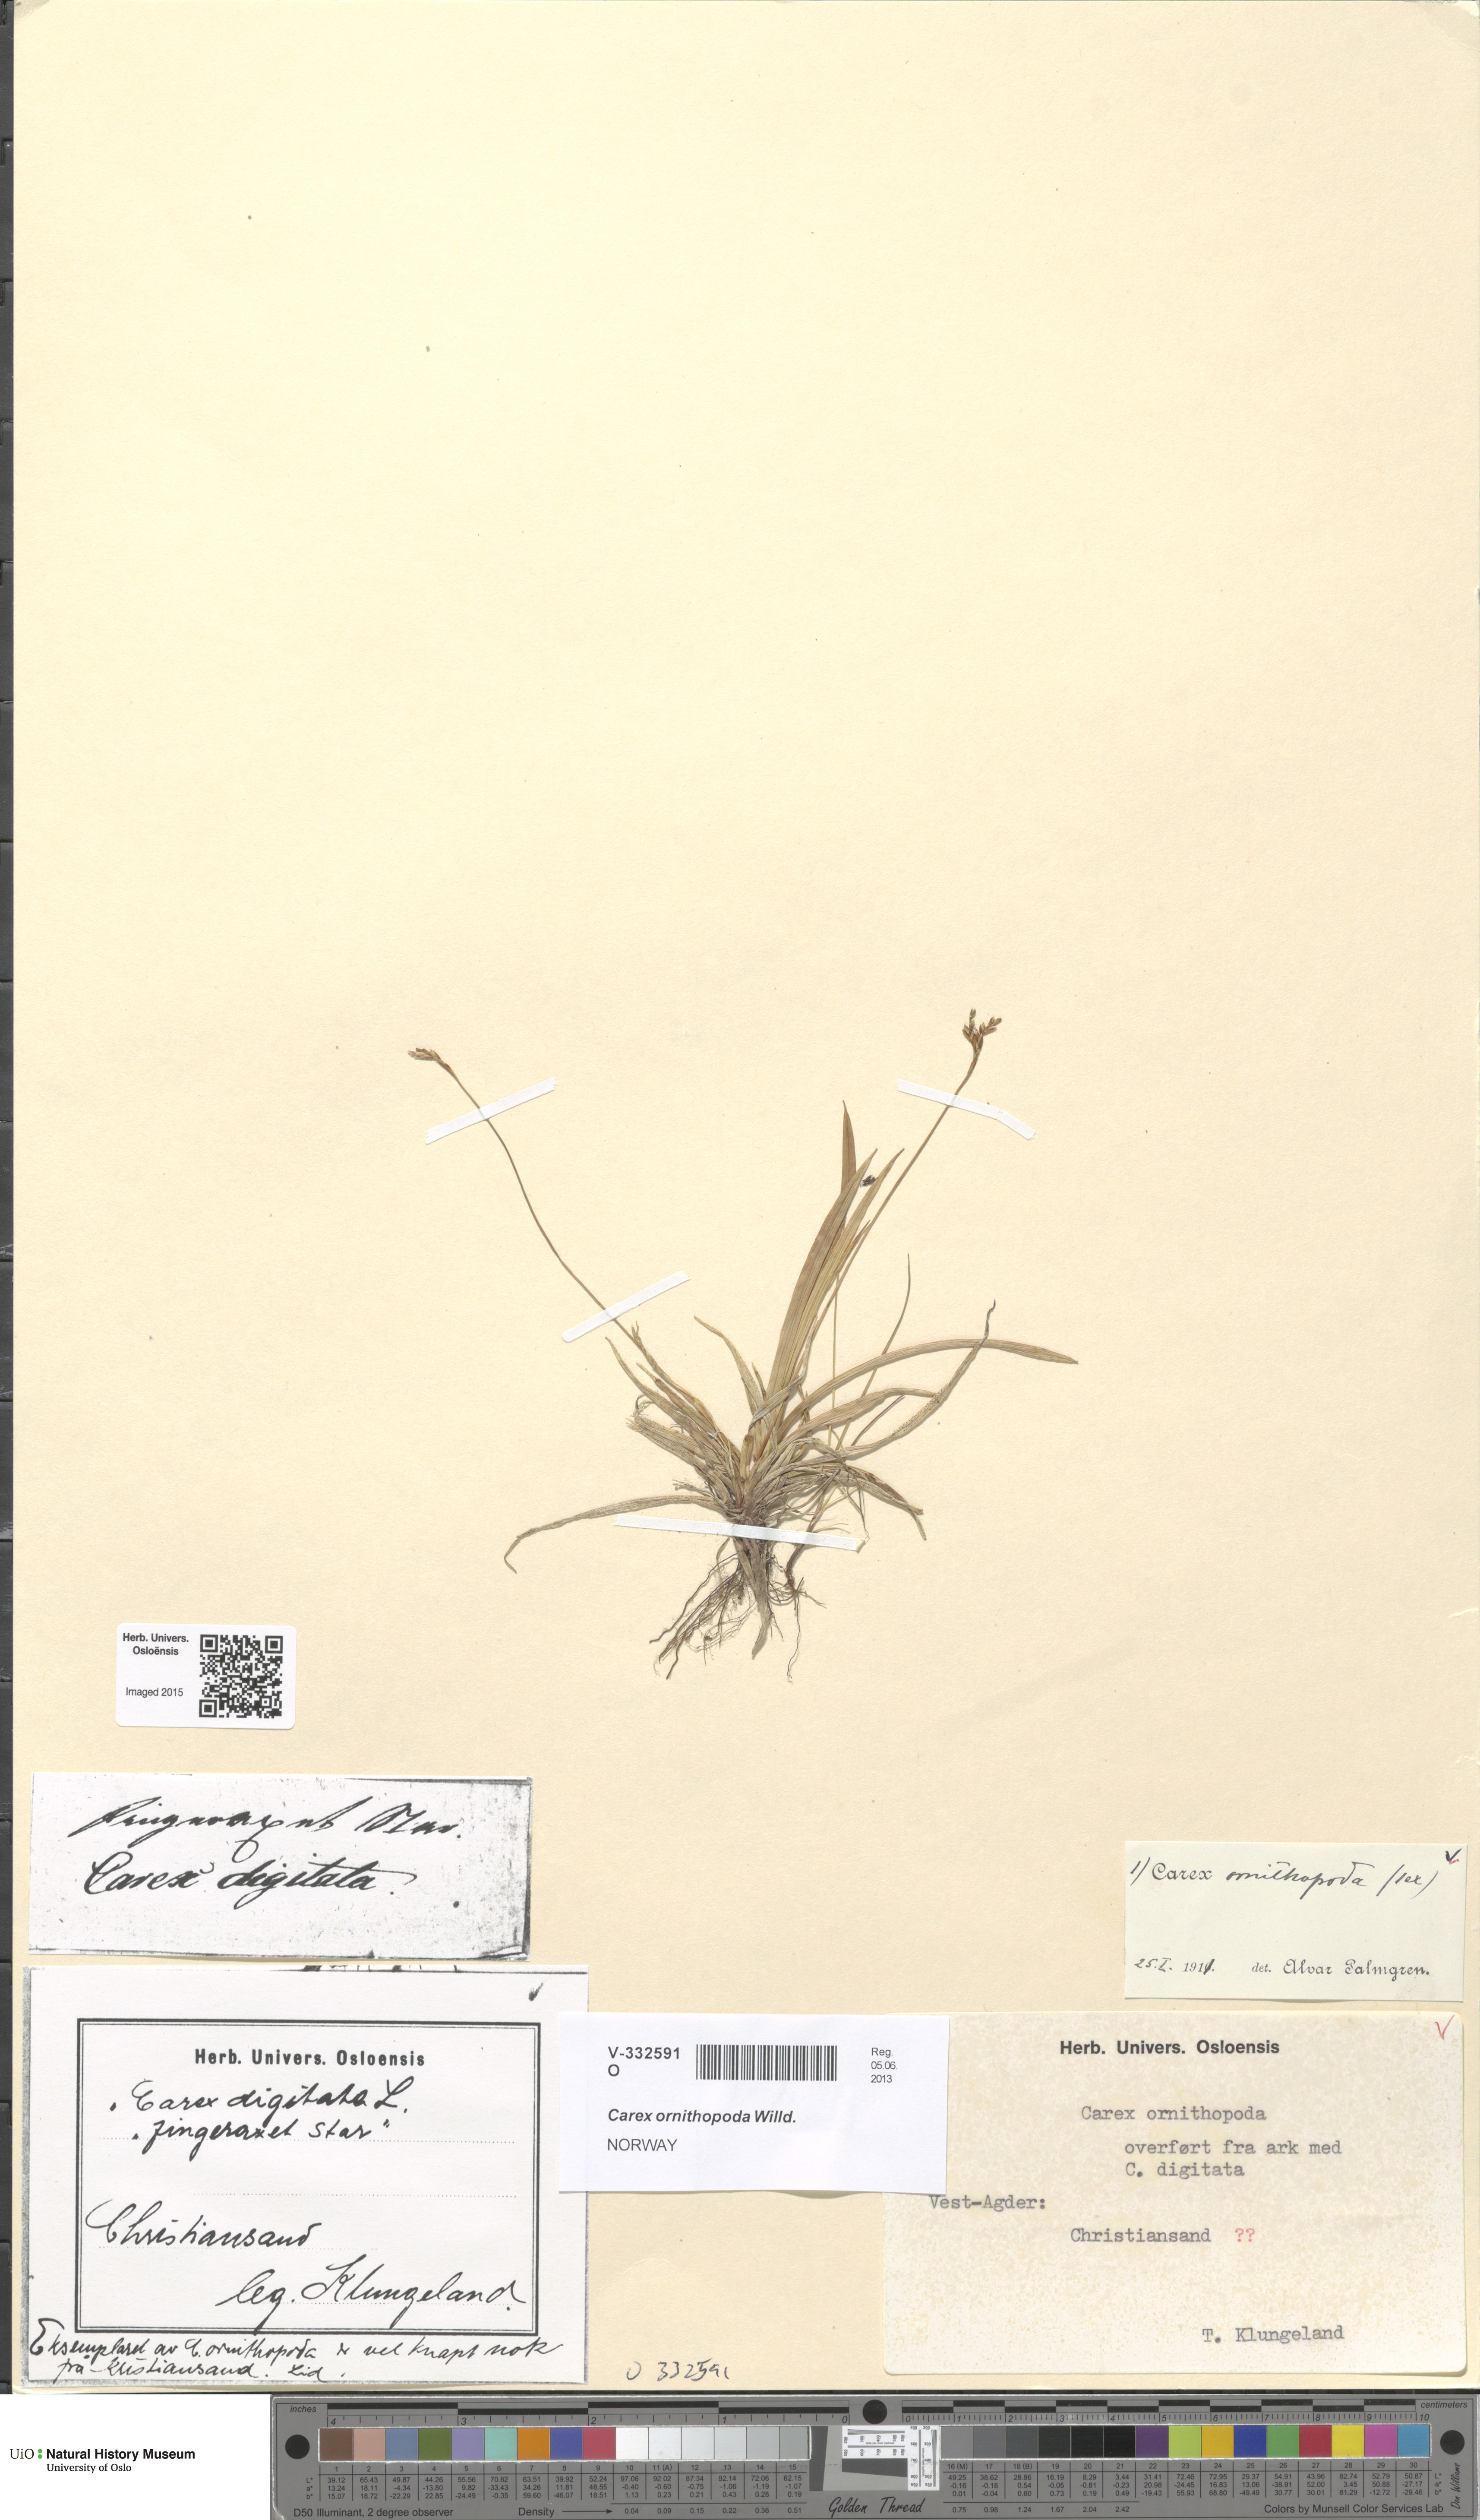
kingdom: Plantae
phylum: Tracheophyta
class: Liliopsida
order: Poales
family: Cyperaceae
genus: Carex
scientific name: Carex ornithopoda
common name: Bird's-foot sedge
